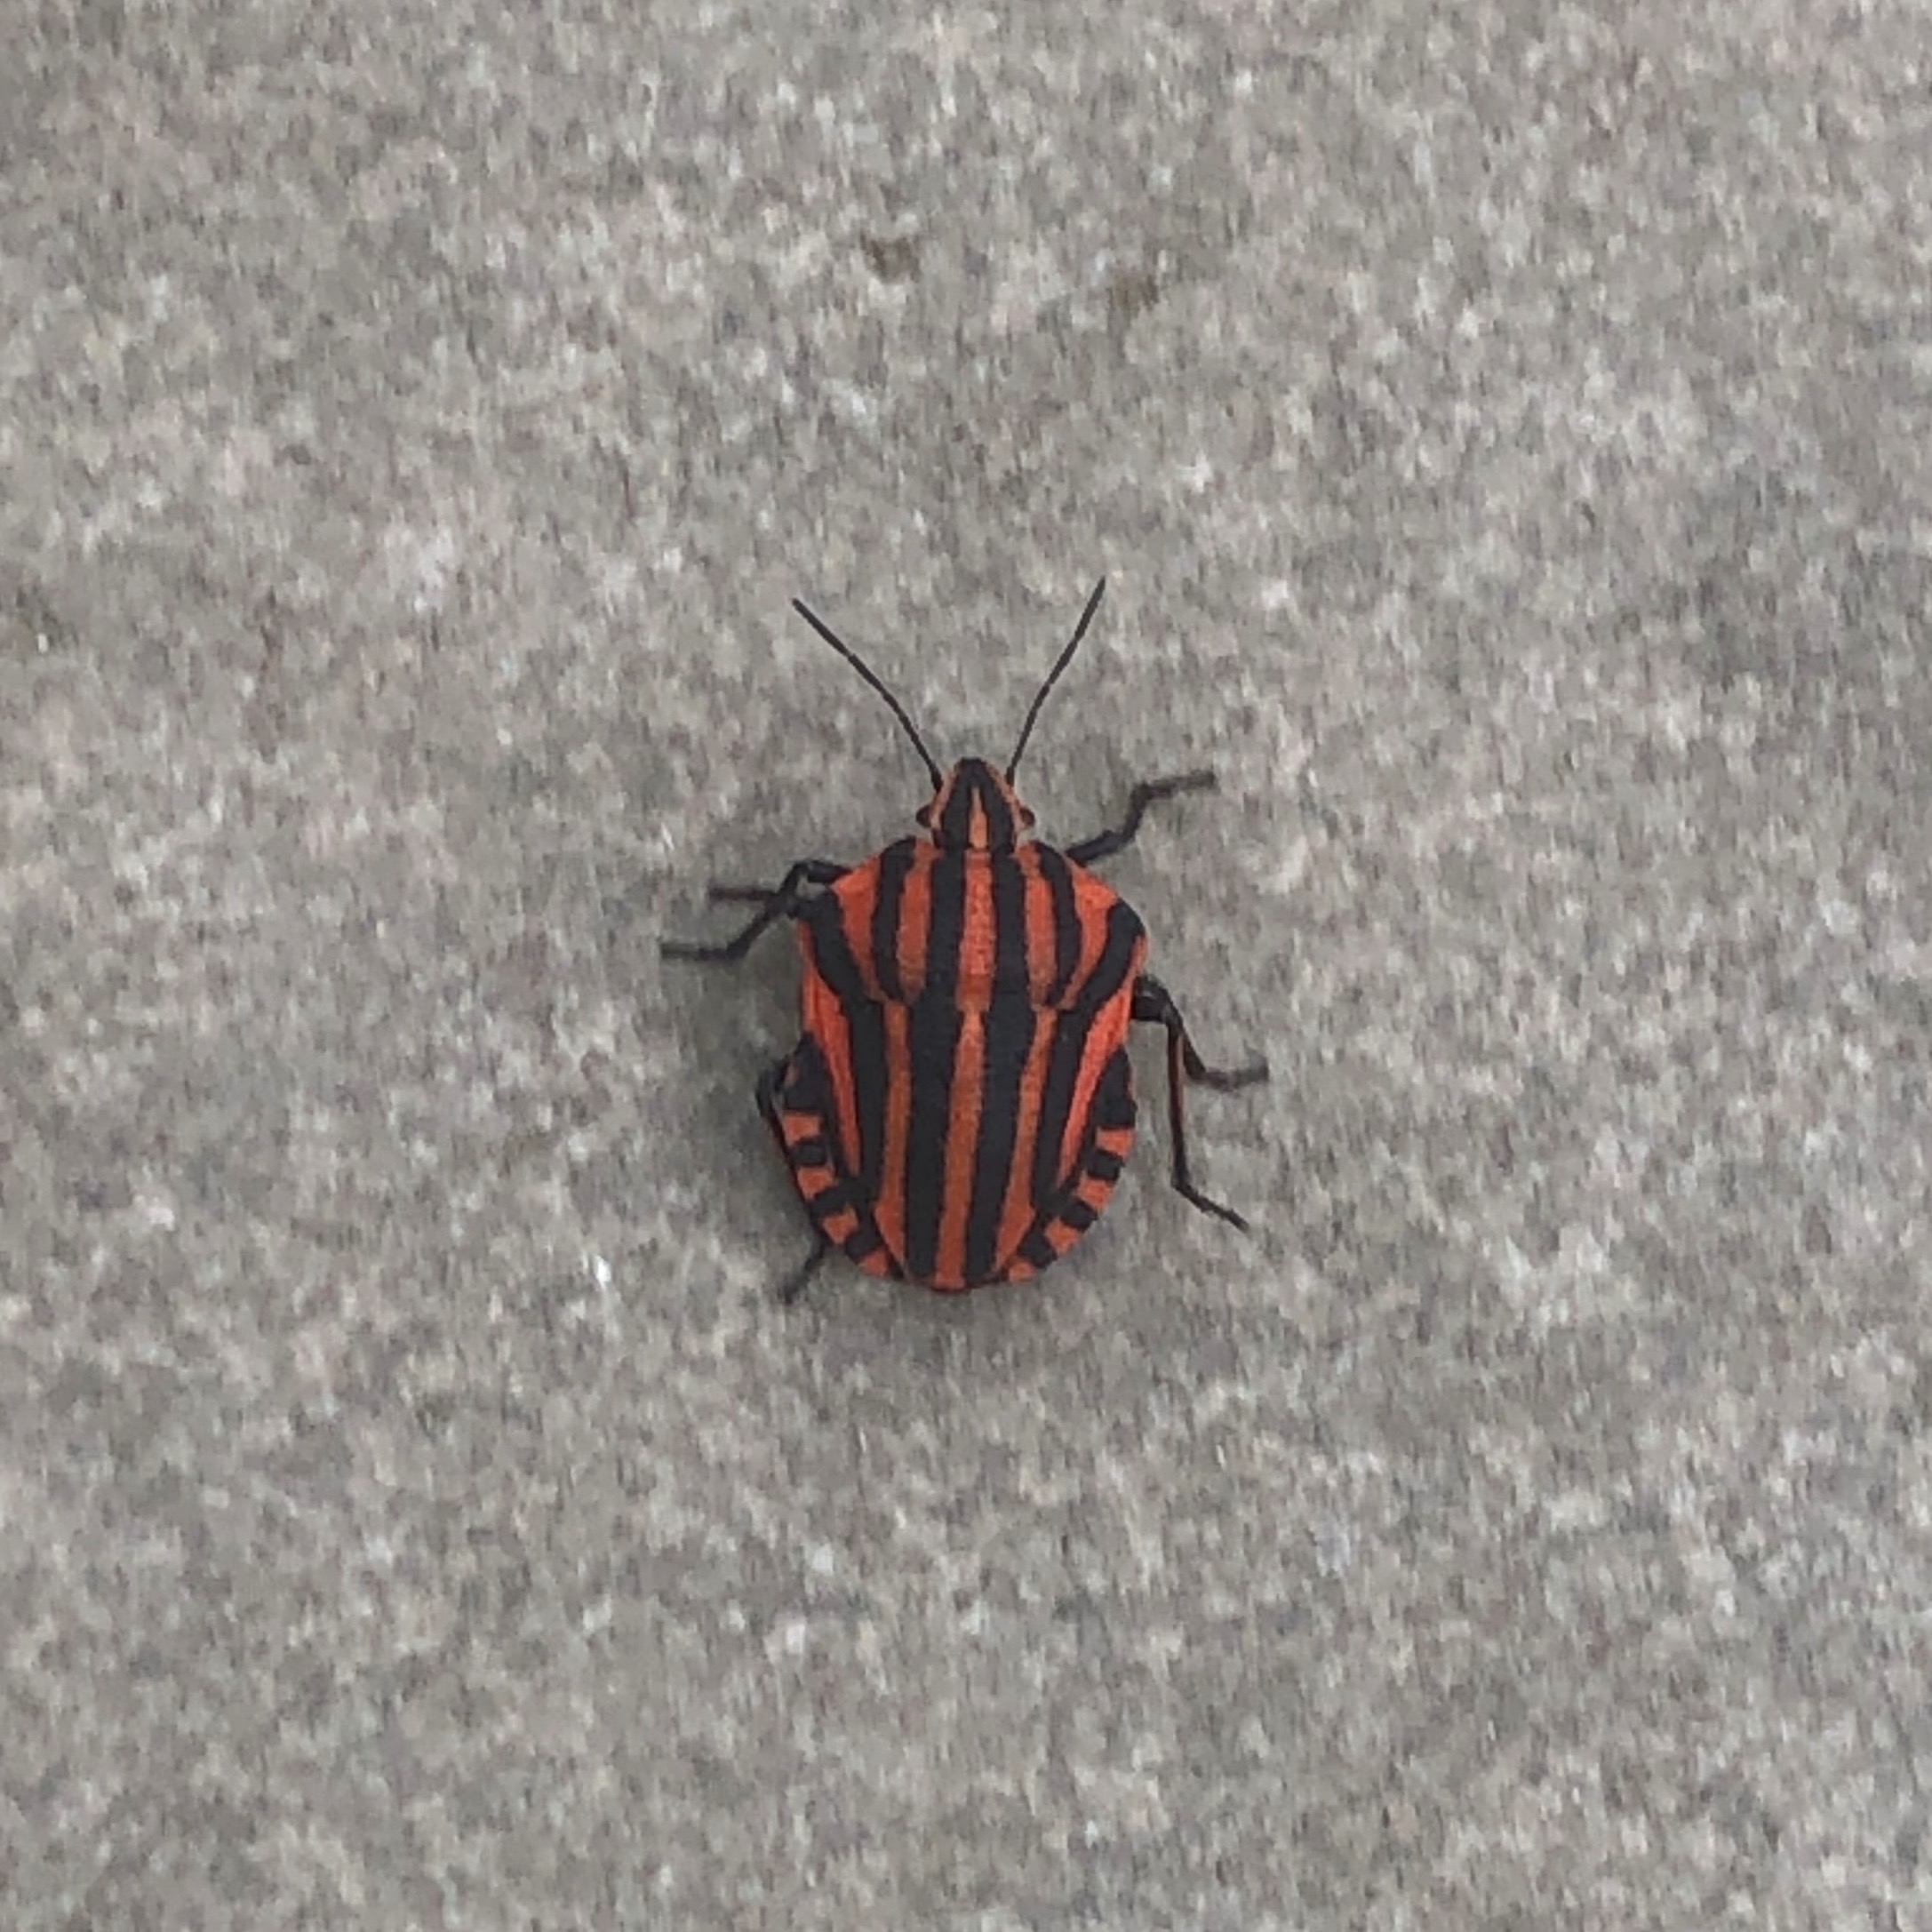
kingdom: Animalia
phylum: Arthropoda
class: Insecta
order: Hemiptera
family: Pentatomidae
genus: Graphosoma
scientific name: Graphosoma italicum
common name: Stribetæge
